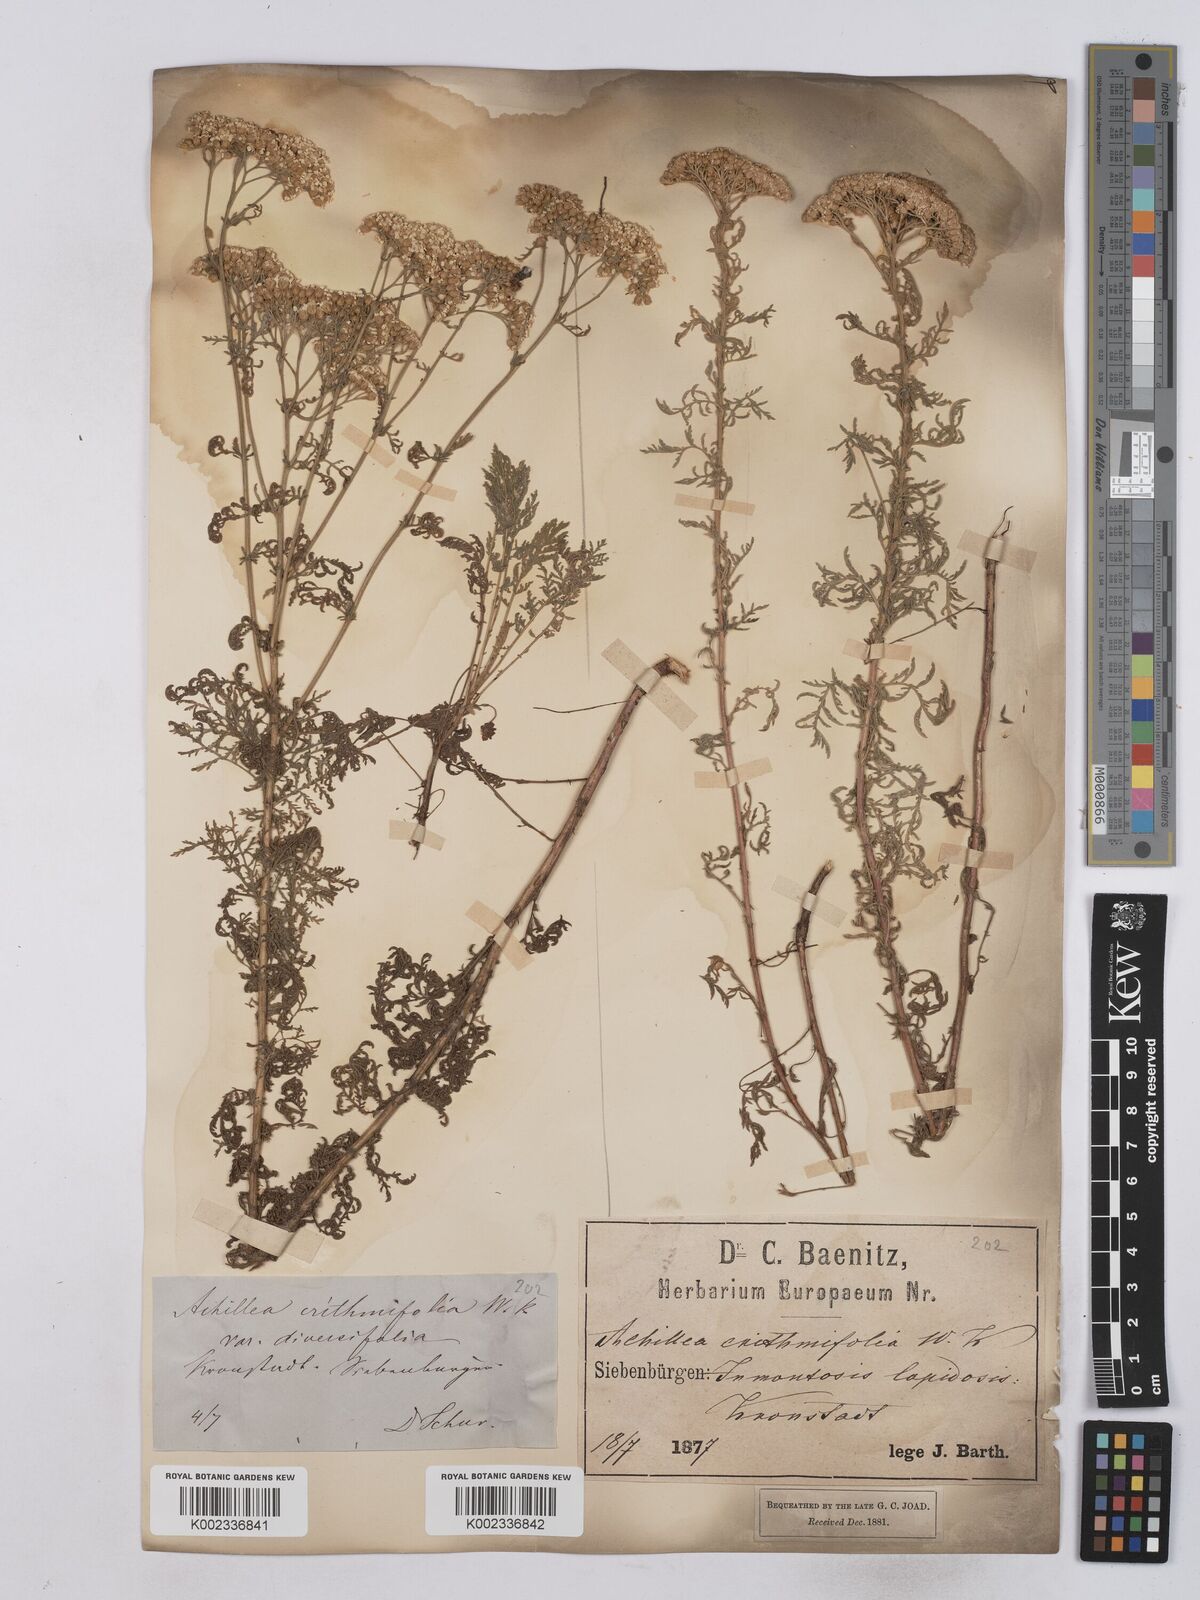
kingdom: Plantae
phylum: Tracheophyta
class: Magnoliopsida
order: Asterales
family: Asteraceae
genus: Achillea
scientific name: Achillea crithmifolia
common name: Yarrow
